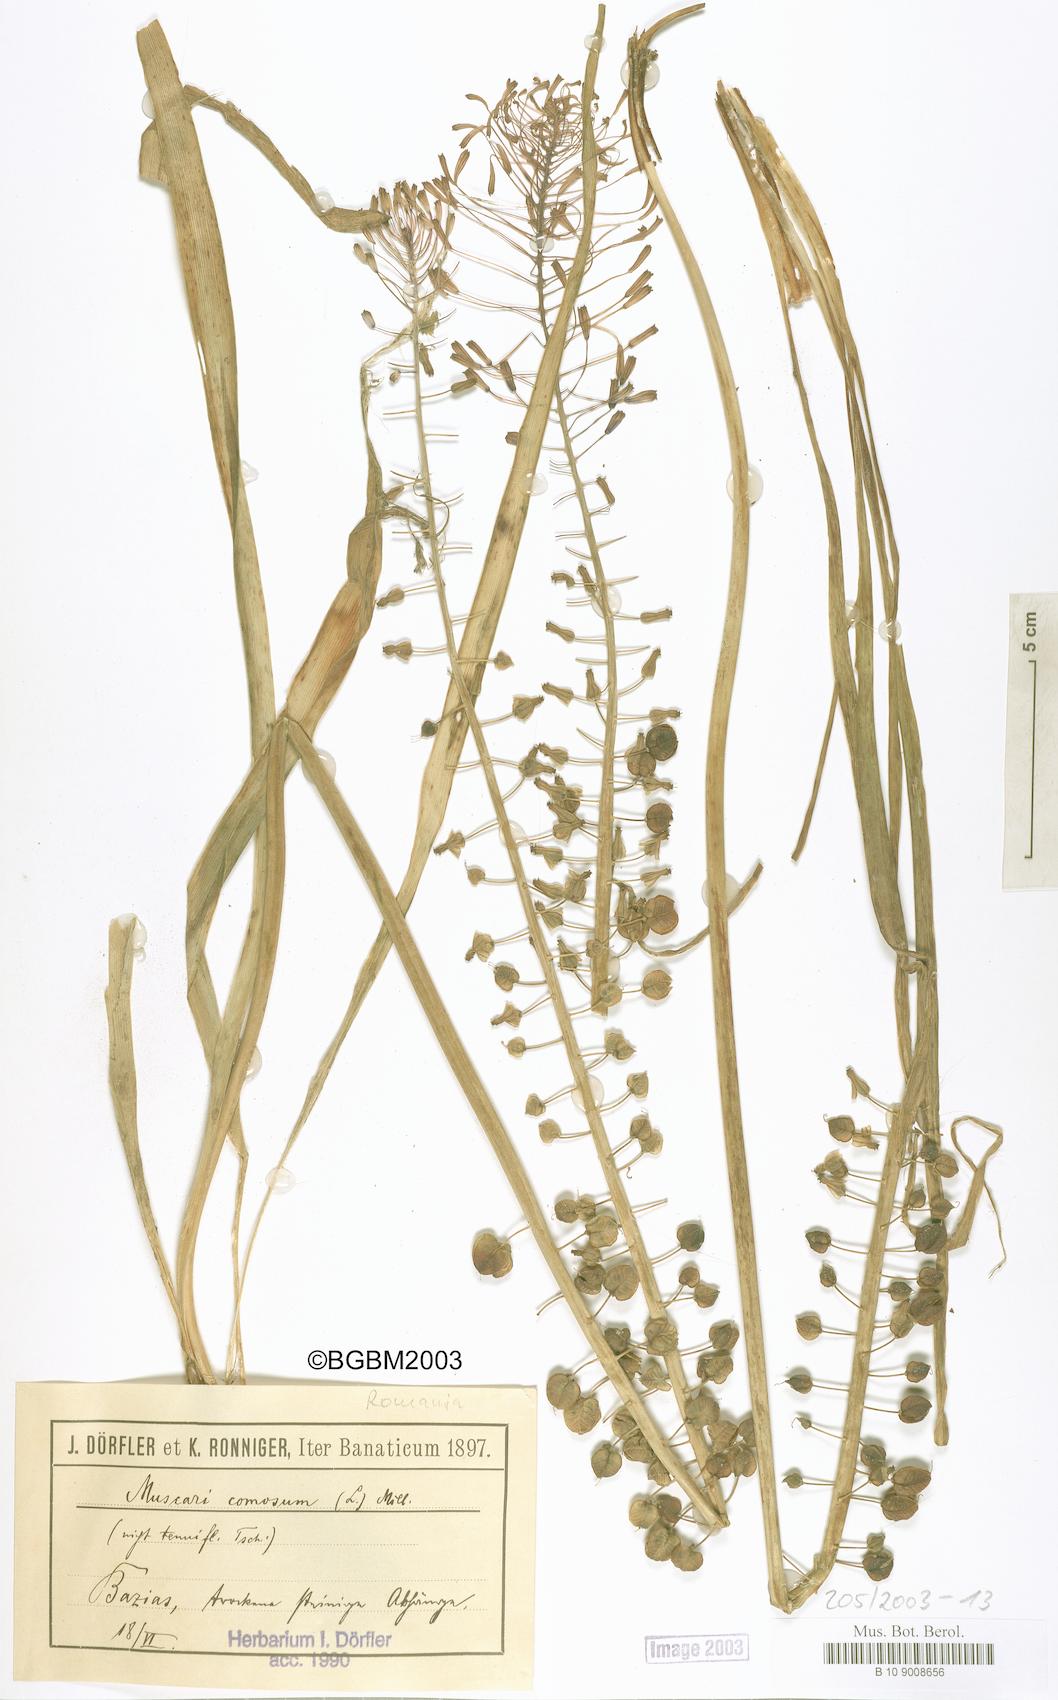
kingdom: Plantae
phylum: Tracheophyta
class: Liliopsida
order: Asparagales
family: Asparagaceae
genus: Muscari
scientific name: Muscari comosum
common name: Tassel hyacinth
